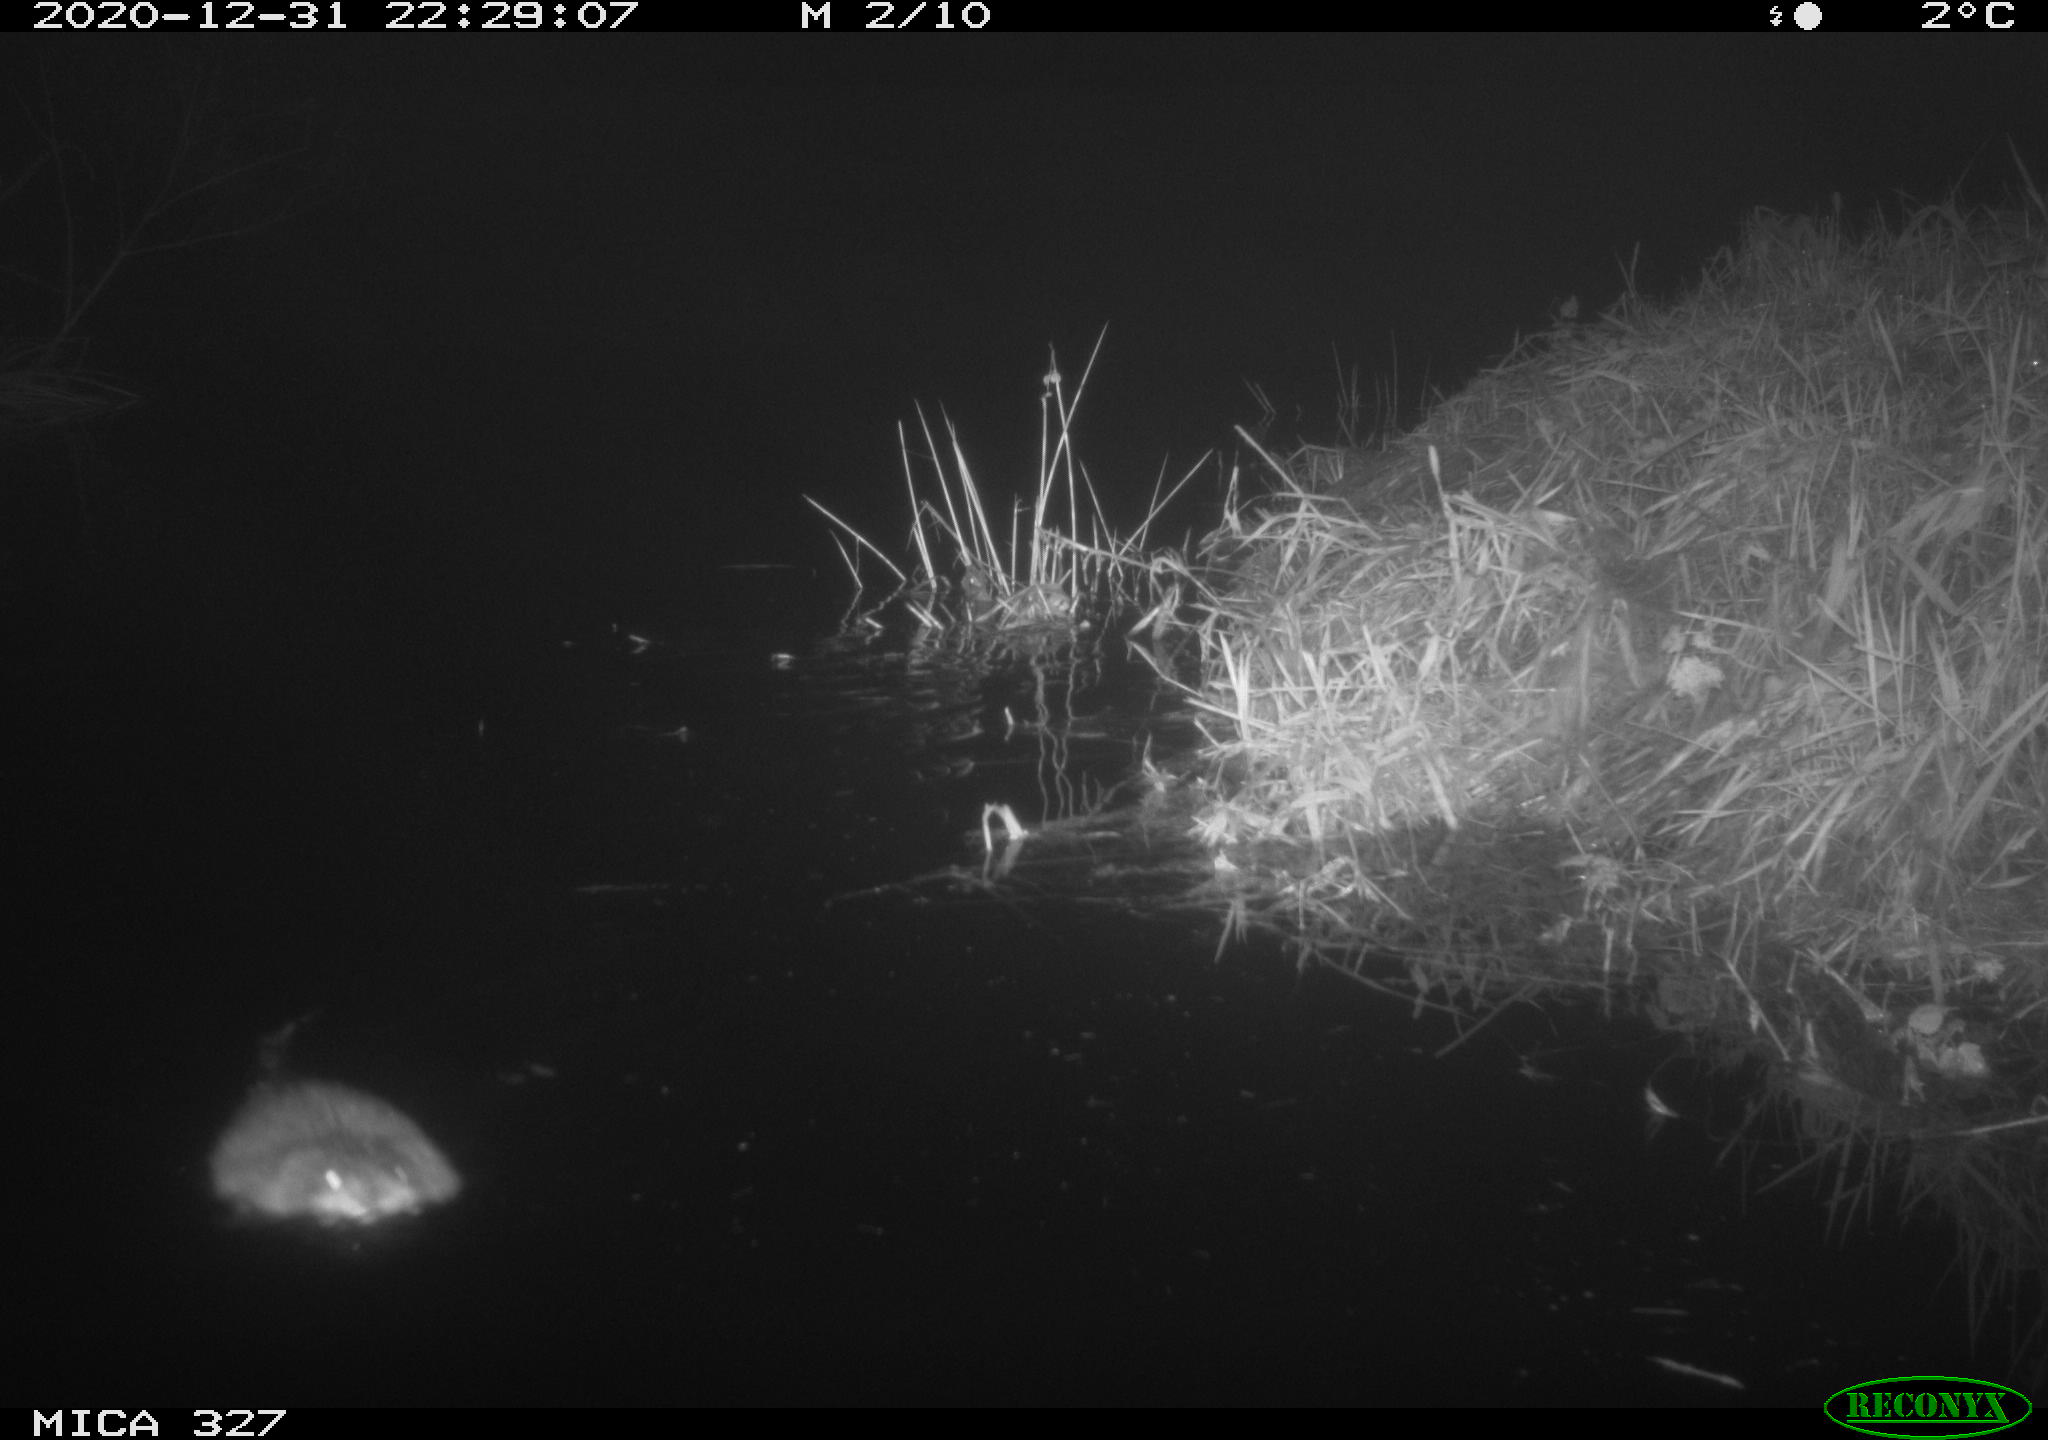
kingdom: Animalia
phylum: Chordata
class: Mammalia
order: Rodentia
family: Cricetidae
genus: Ondatra
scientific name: Ondatra zibethicus
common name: Muskrat
